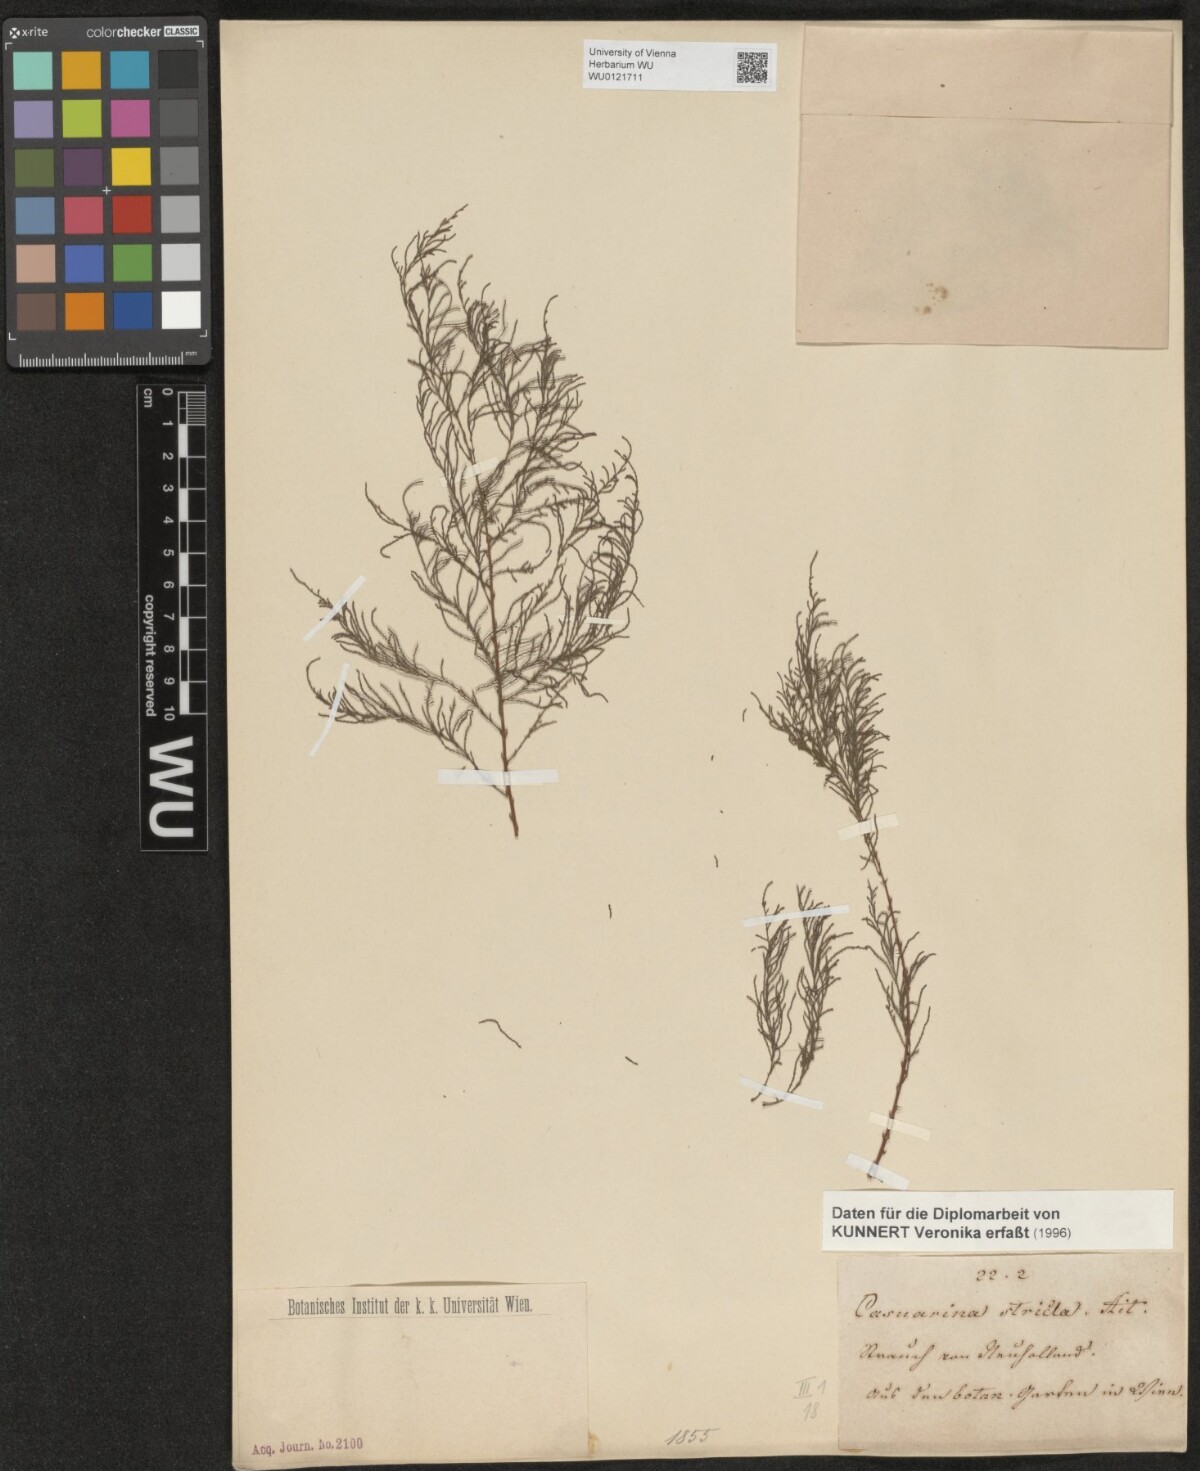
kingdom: Plantae
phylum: Tracheophyta
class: Magnoliopsida
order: Fagales
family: Casuarinaceae
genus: Casuarina
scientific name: Casuarina stricta
